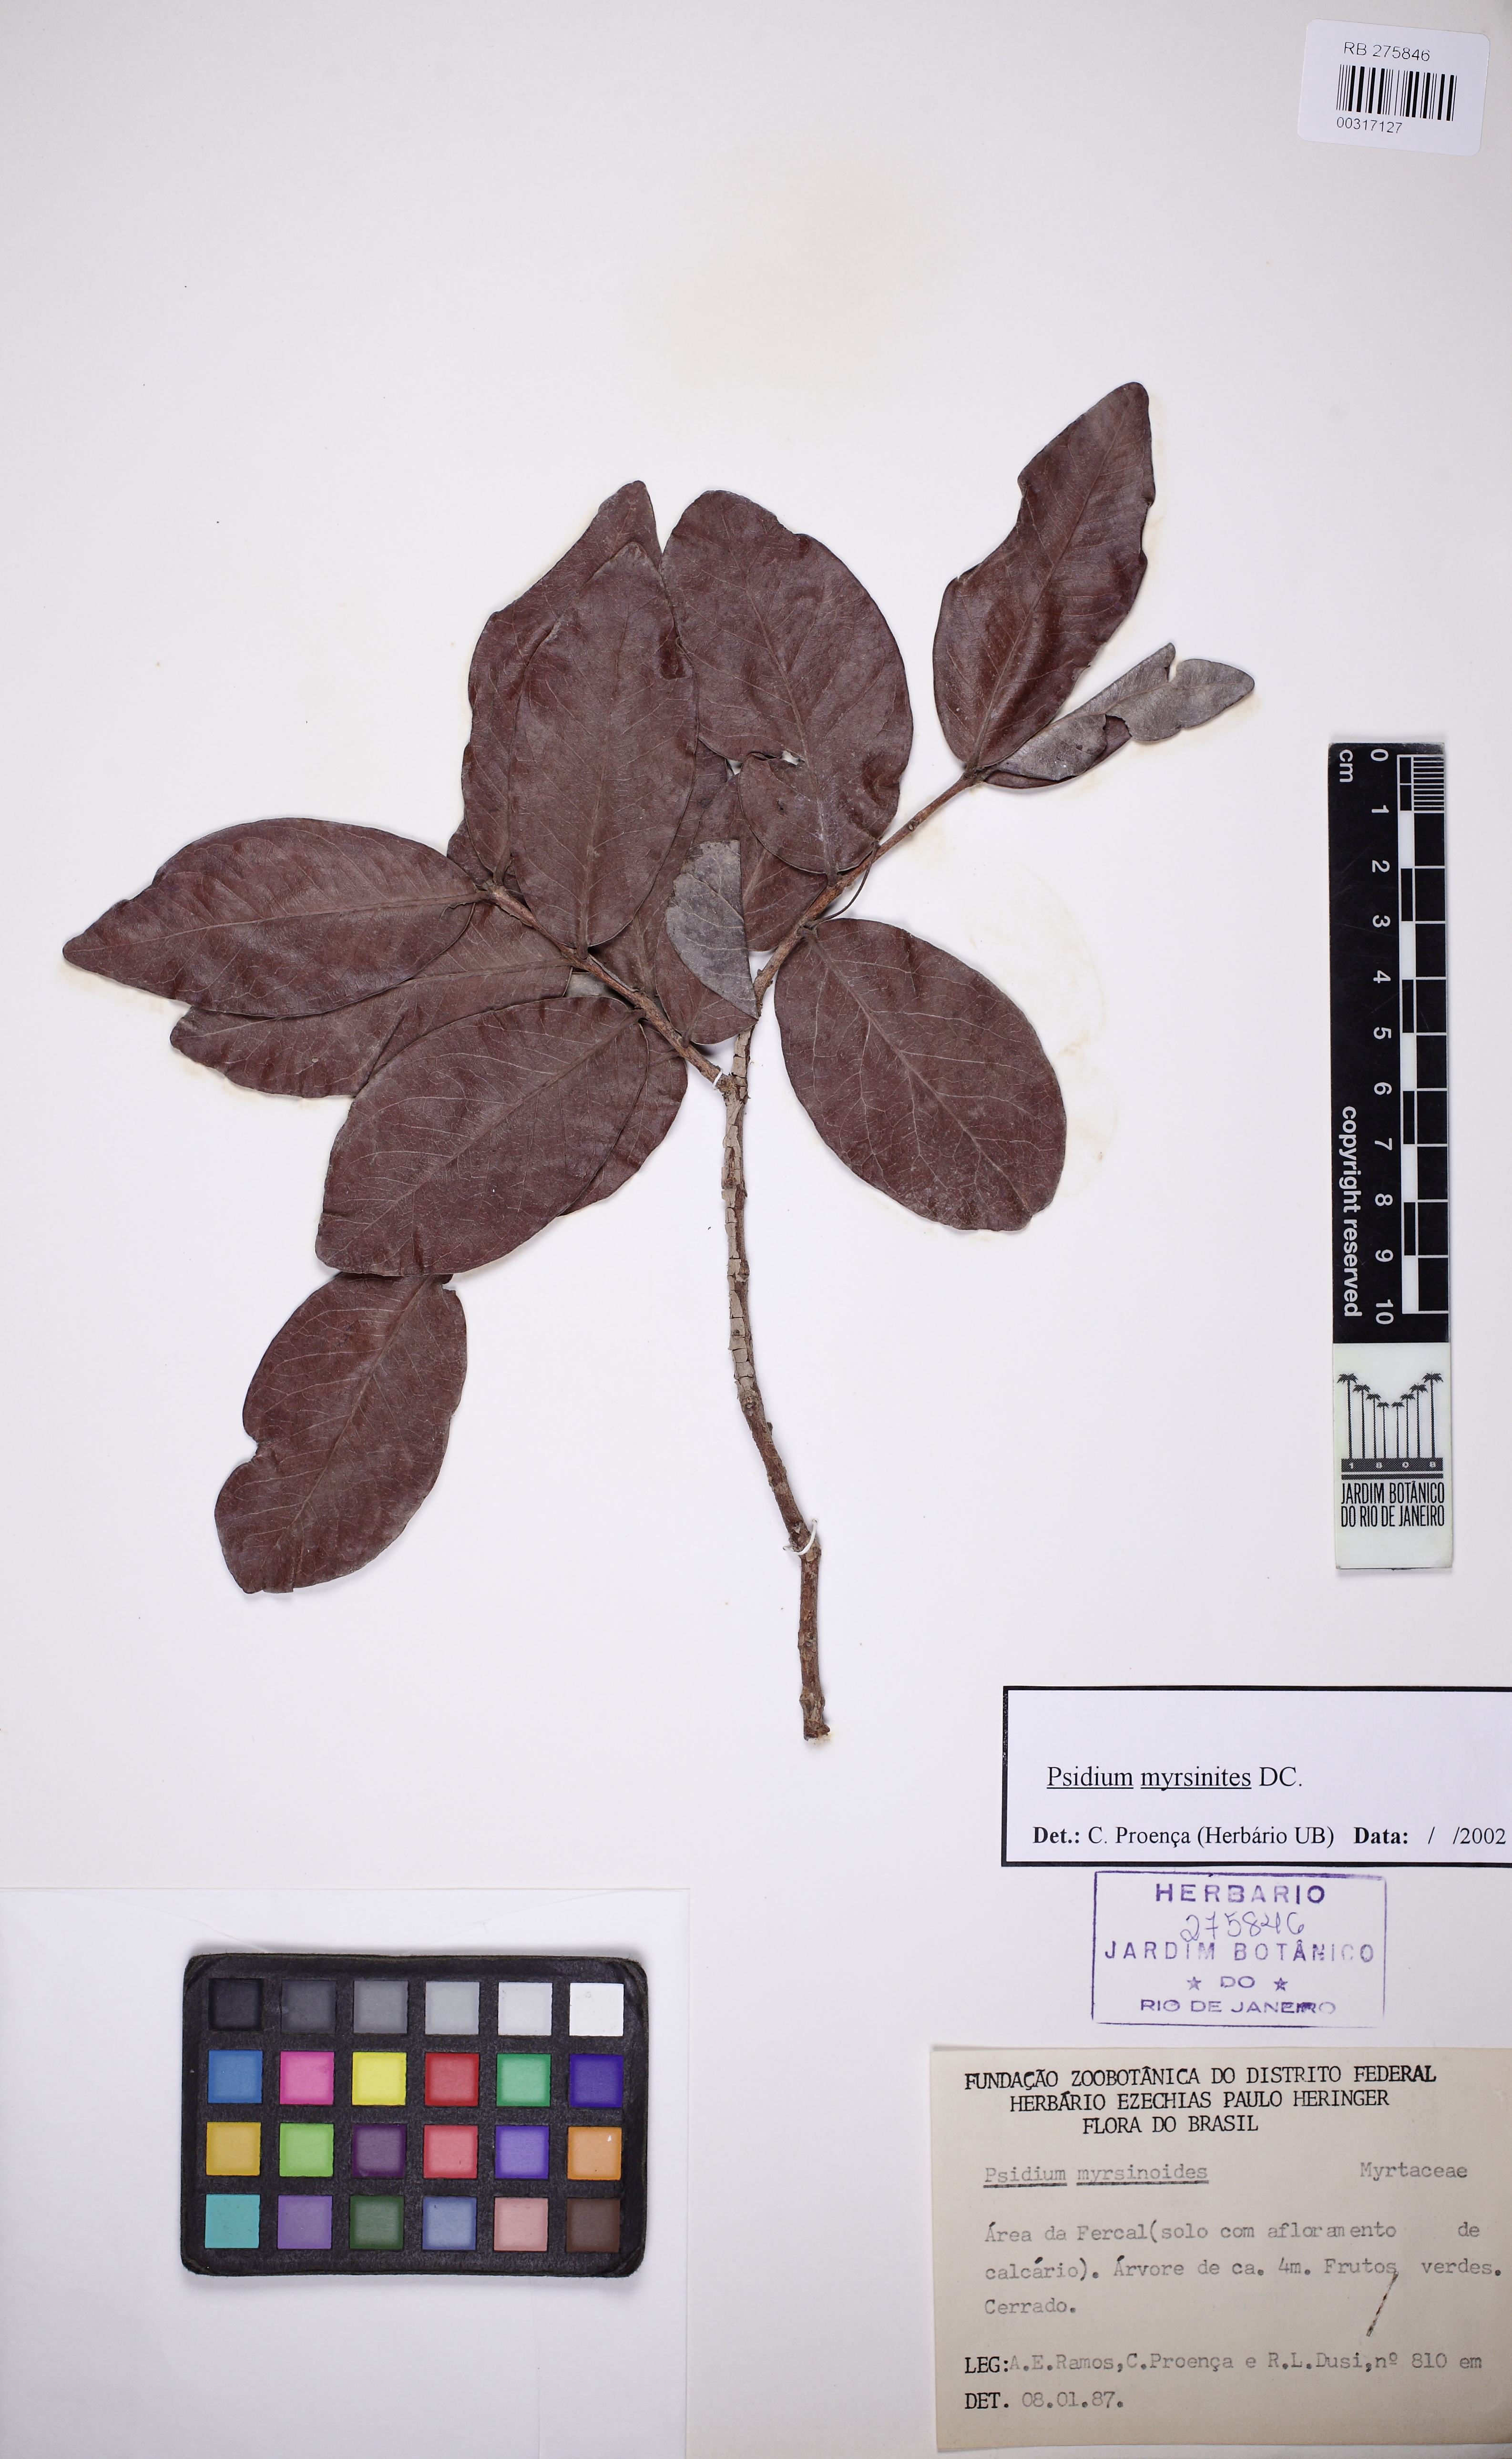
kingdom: Plantae
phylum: Tracheophyta
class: Magnoliopsida
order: Myrtales
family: Myrtaceae
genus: Psidium
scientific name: Psidium myrsinites
